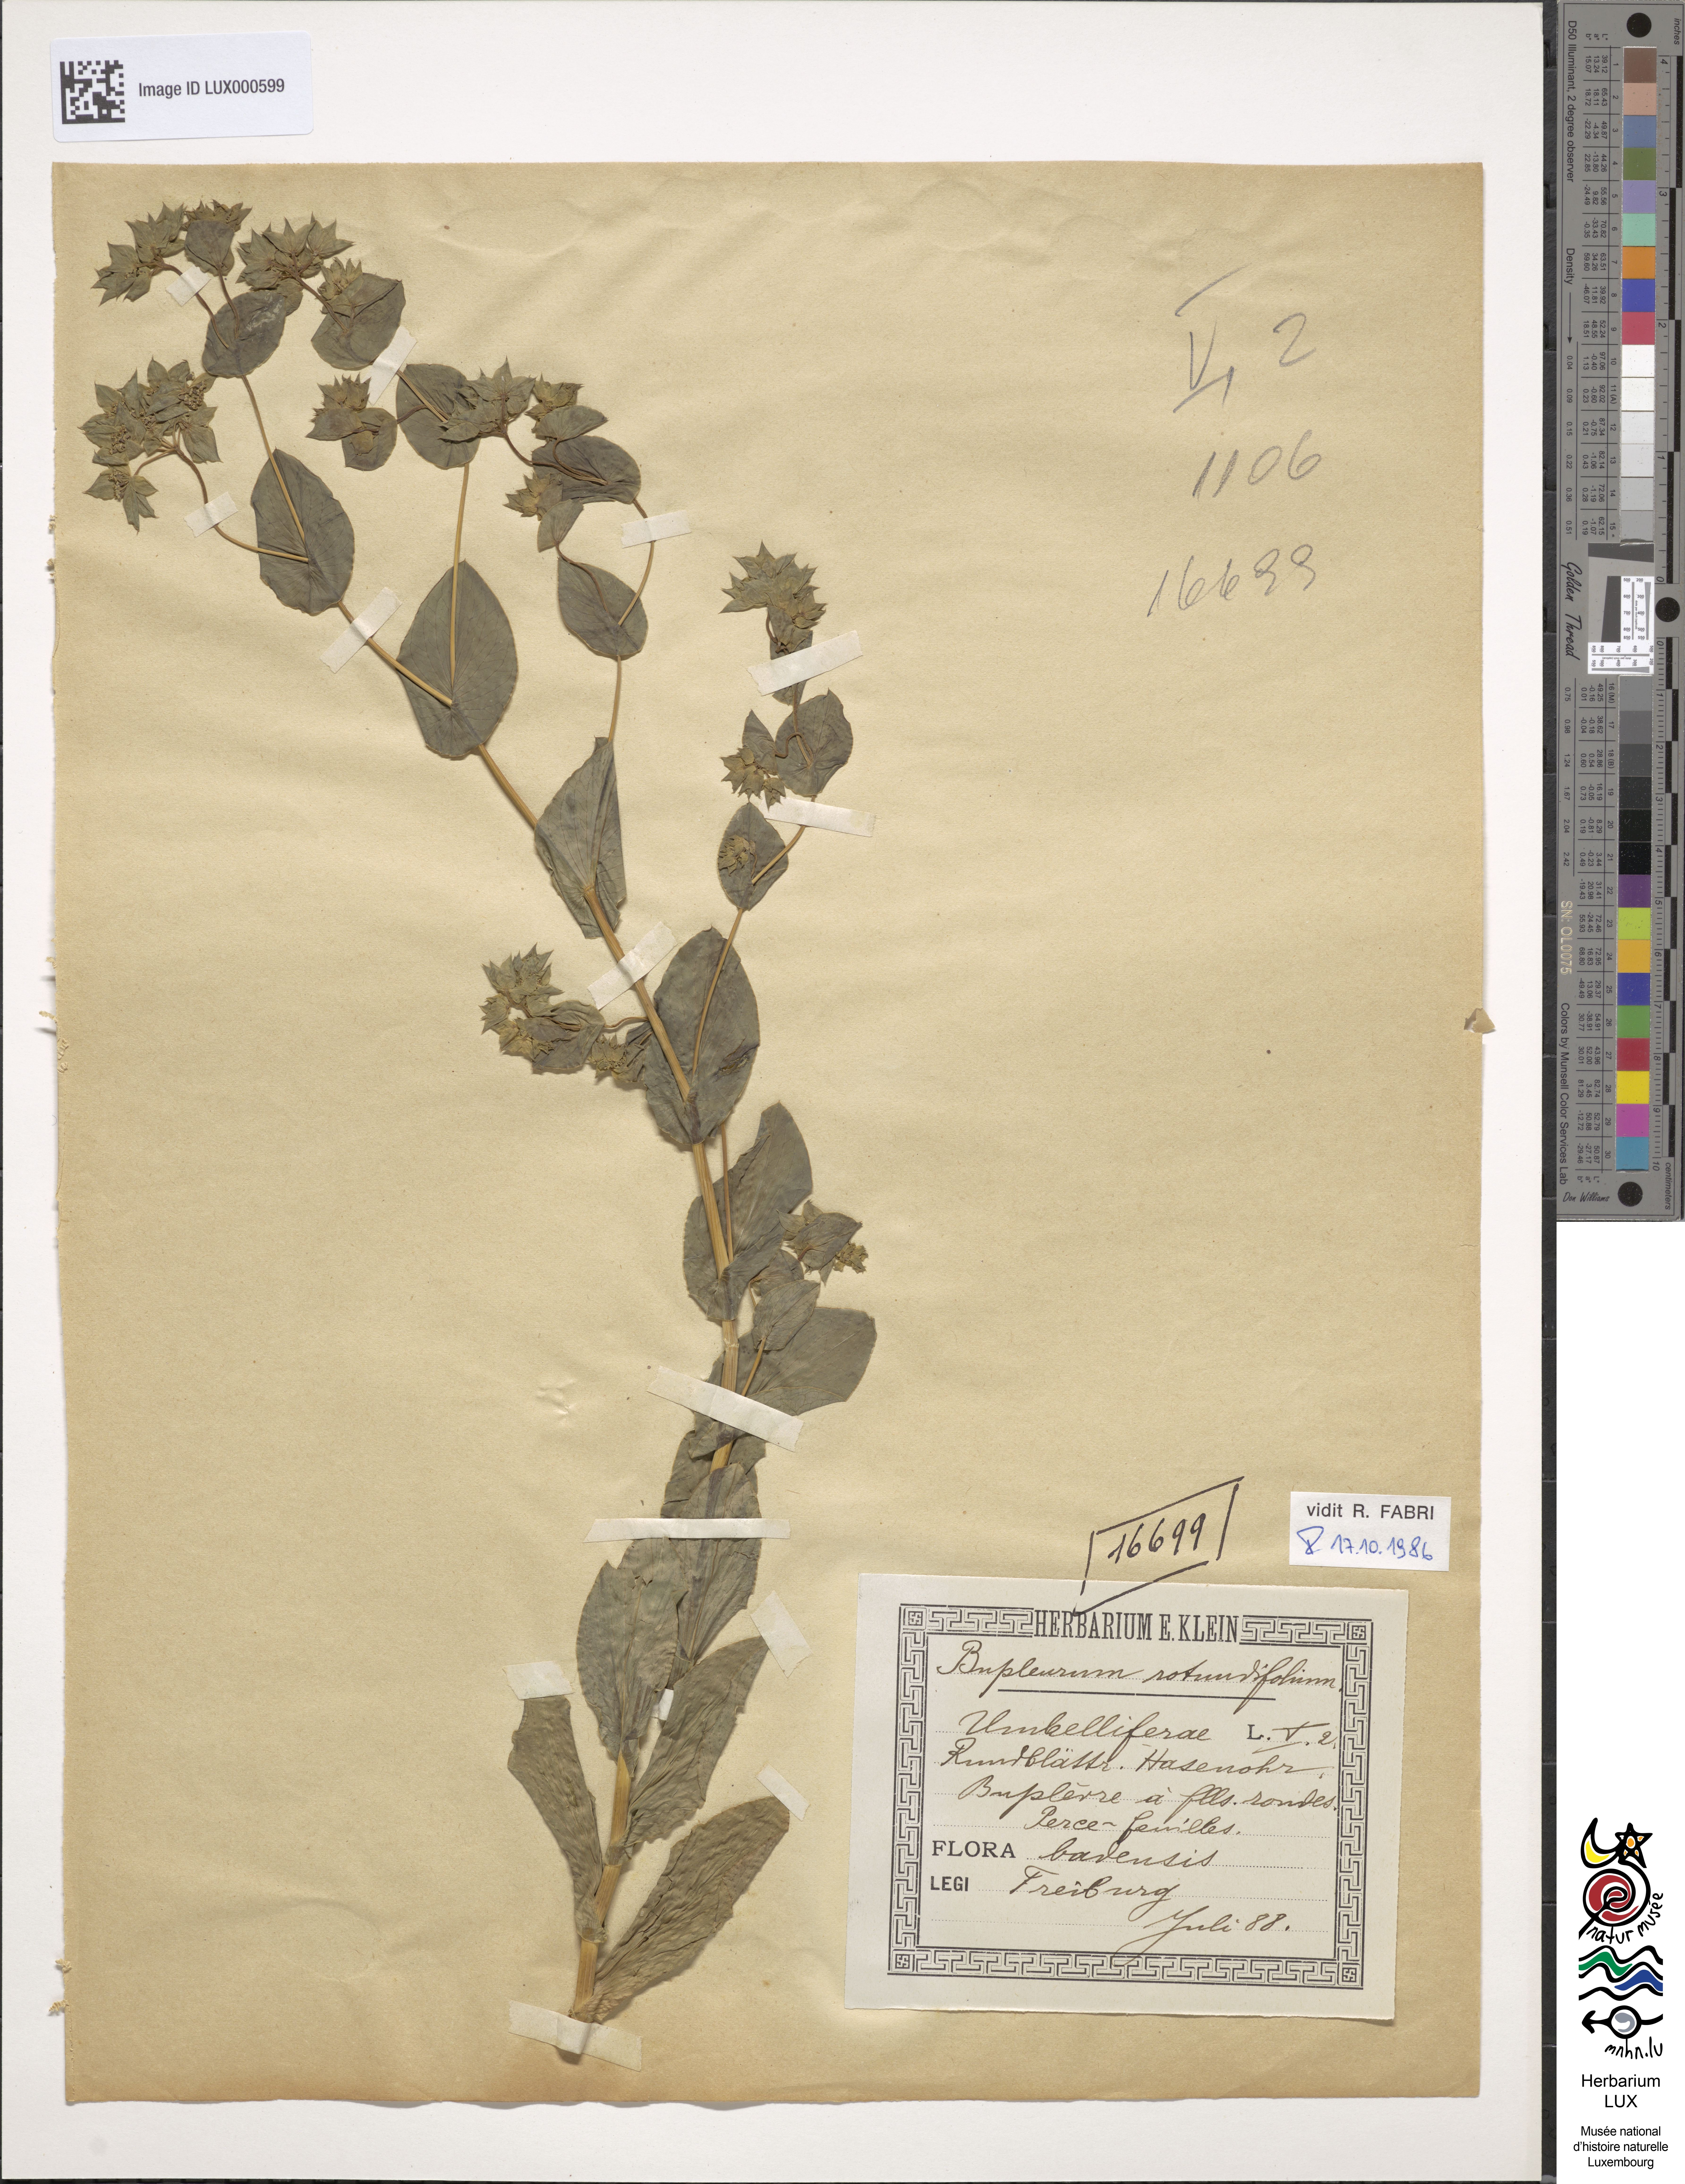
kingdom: Plantae
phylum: Tracheophyta
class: Magnoliopsida
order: Apiales
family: Apiaceae
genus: Bupleurum
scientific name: Bupleurum rotundifolium
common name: Thorow-wax
